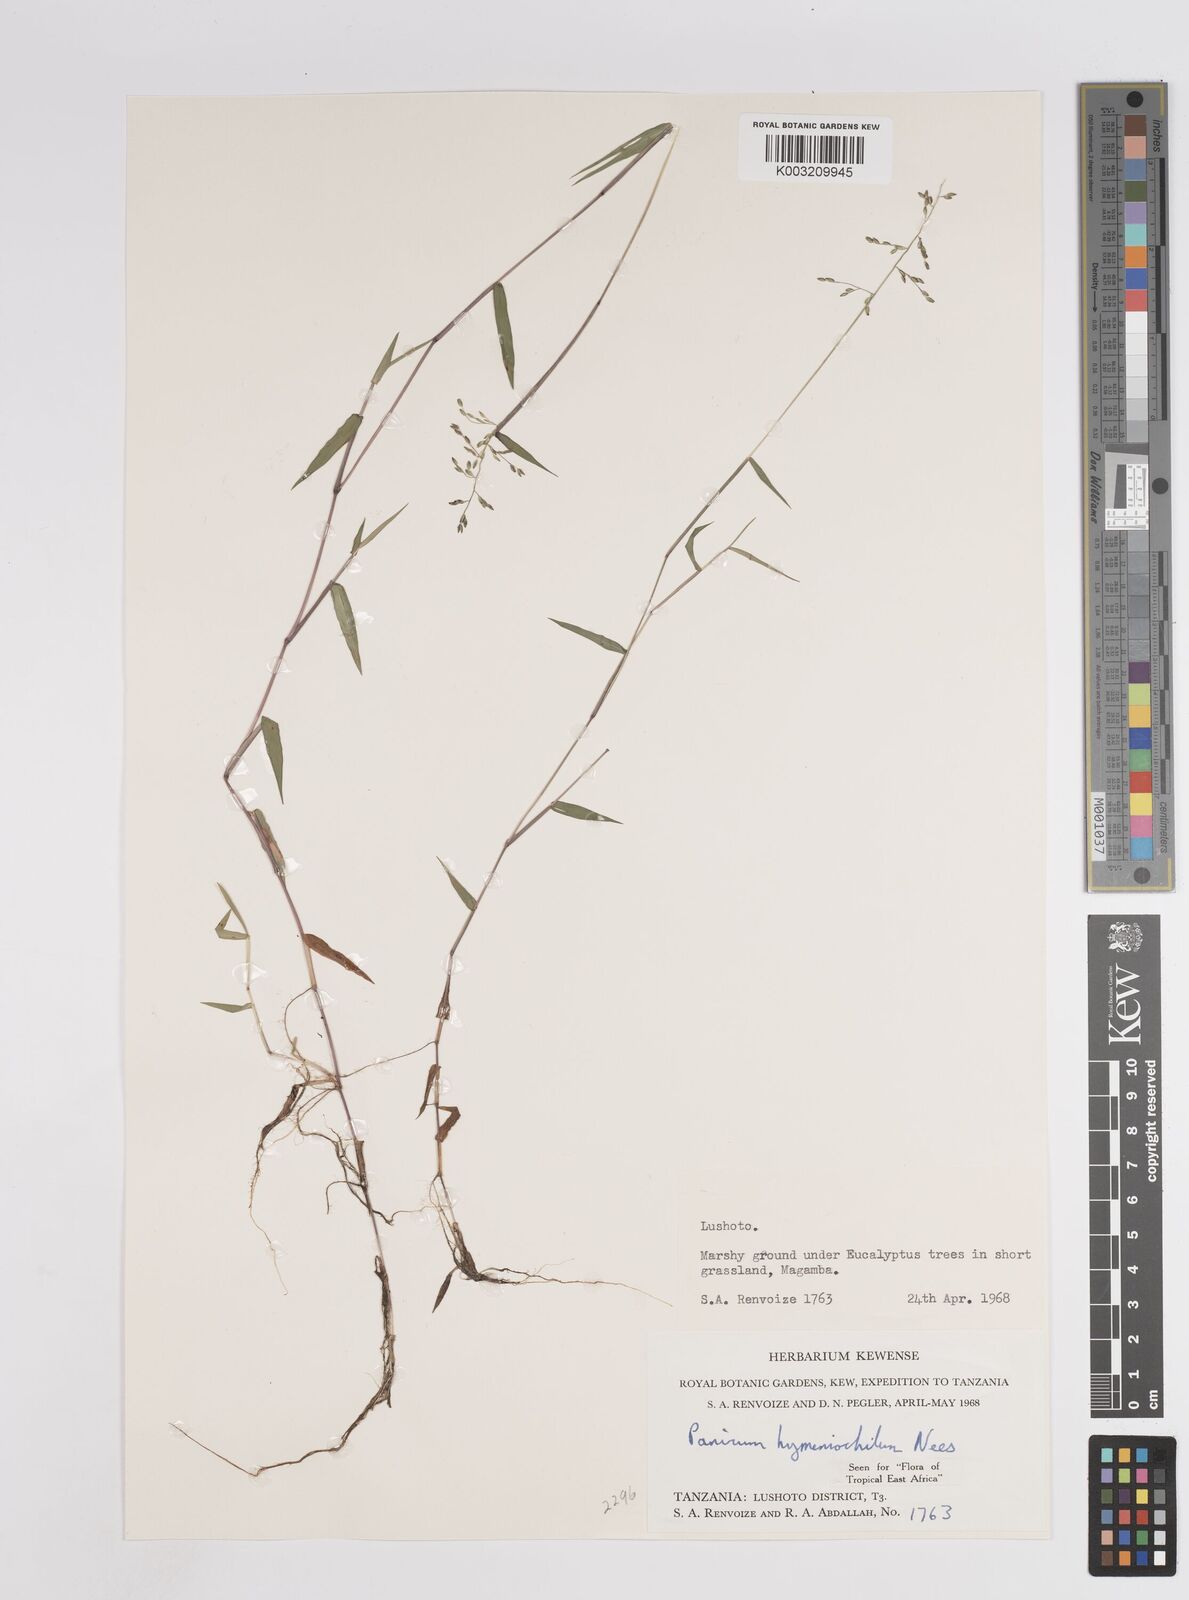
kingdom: Plantae
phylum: Tracheophyta
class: Liliopsida
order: Poales
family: Poaceae
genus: Adenochloa
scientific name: Adenochloa hymeniochila
